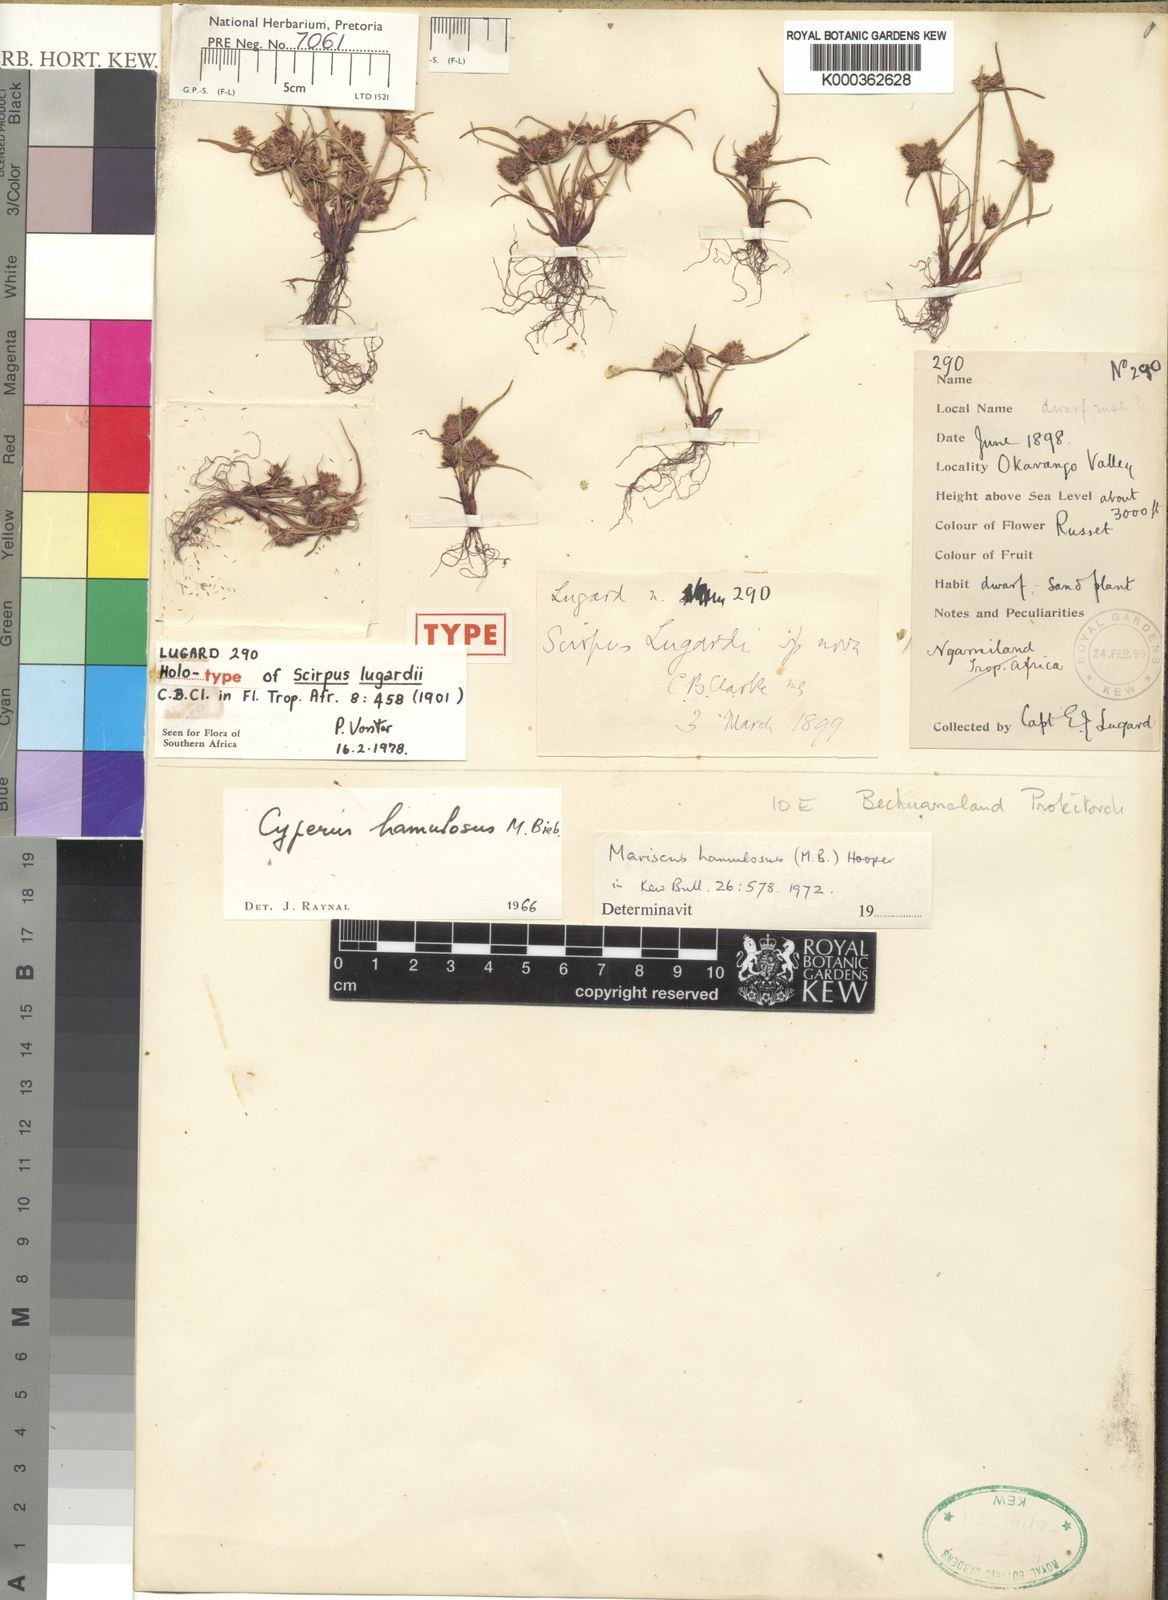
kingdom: Plantae
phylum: Tracheophyta
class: Liliopsida
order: Poales
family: Cyperaceae
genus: Cyperus
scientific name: Cyperus hamulosus
